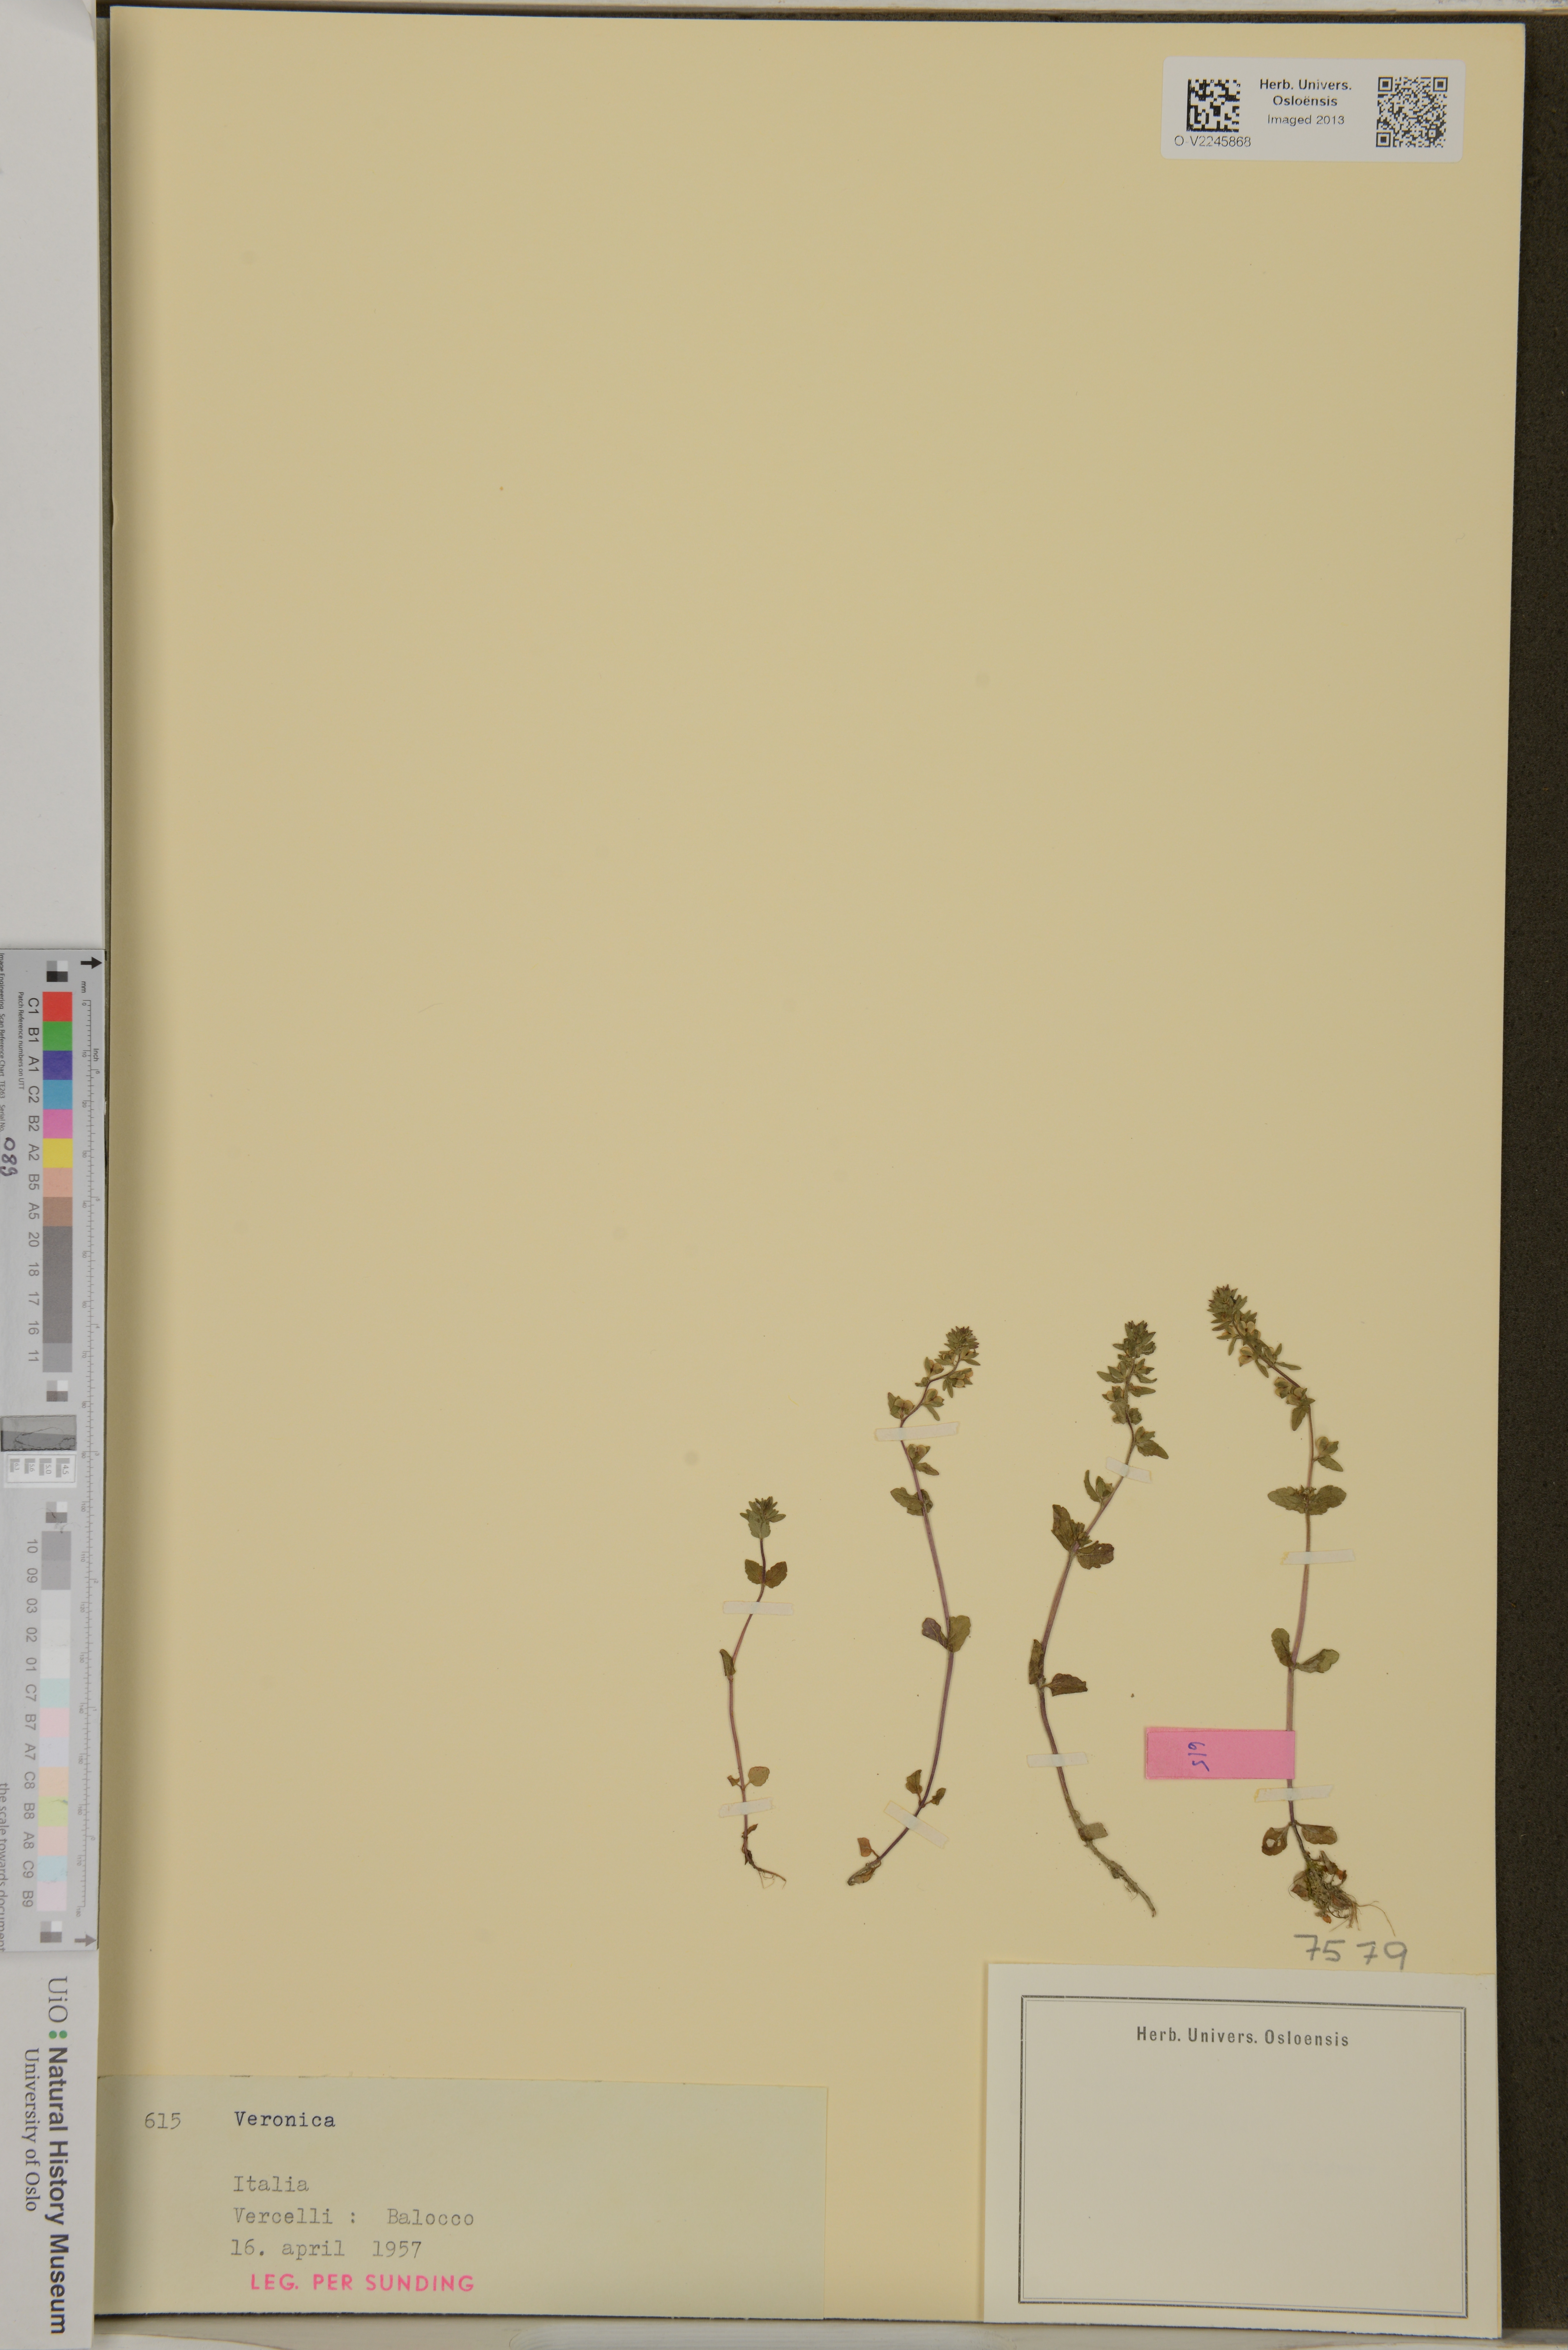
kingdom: Plantae
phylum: Tracheophyta
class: Magnoliopsida
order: Lamiales
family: Plantaginaceae
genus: Veronica
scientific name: Veronica
